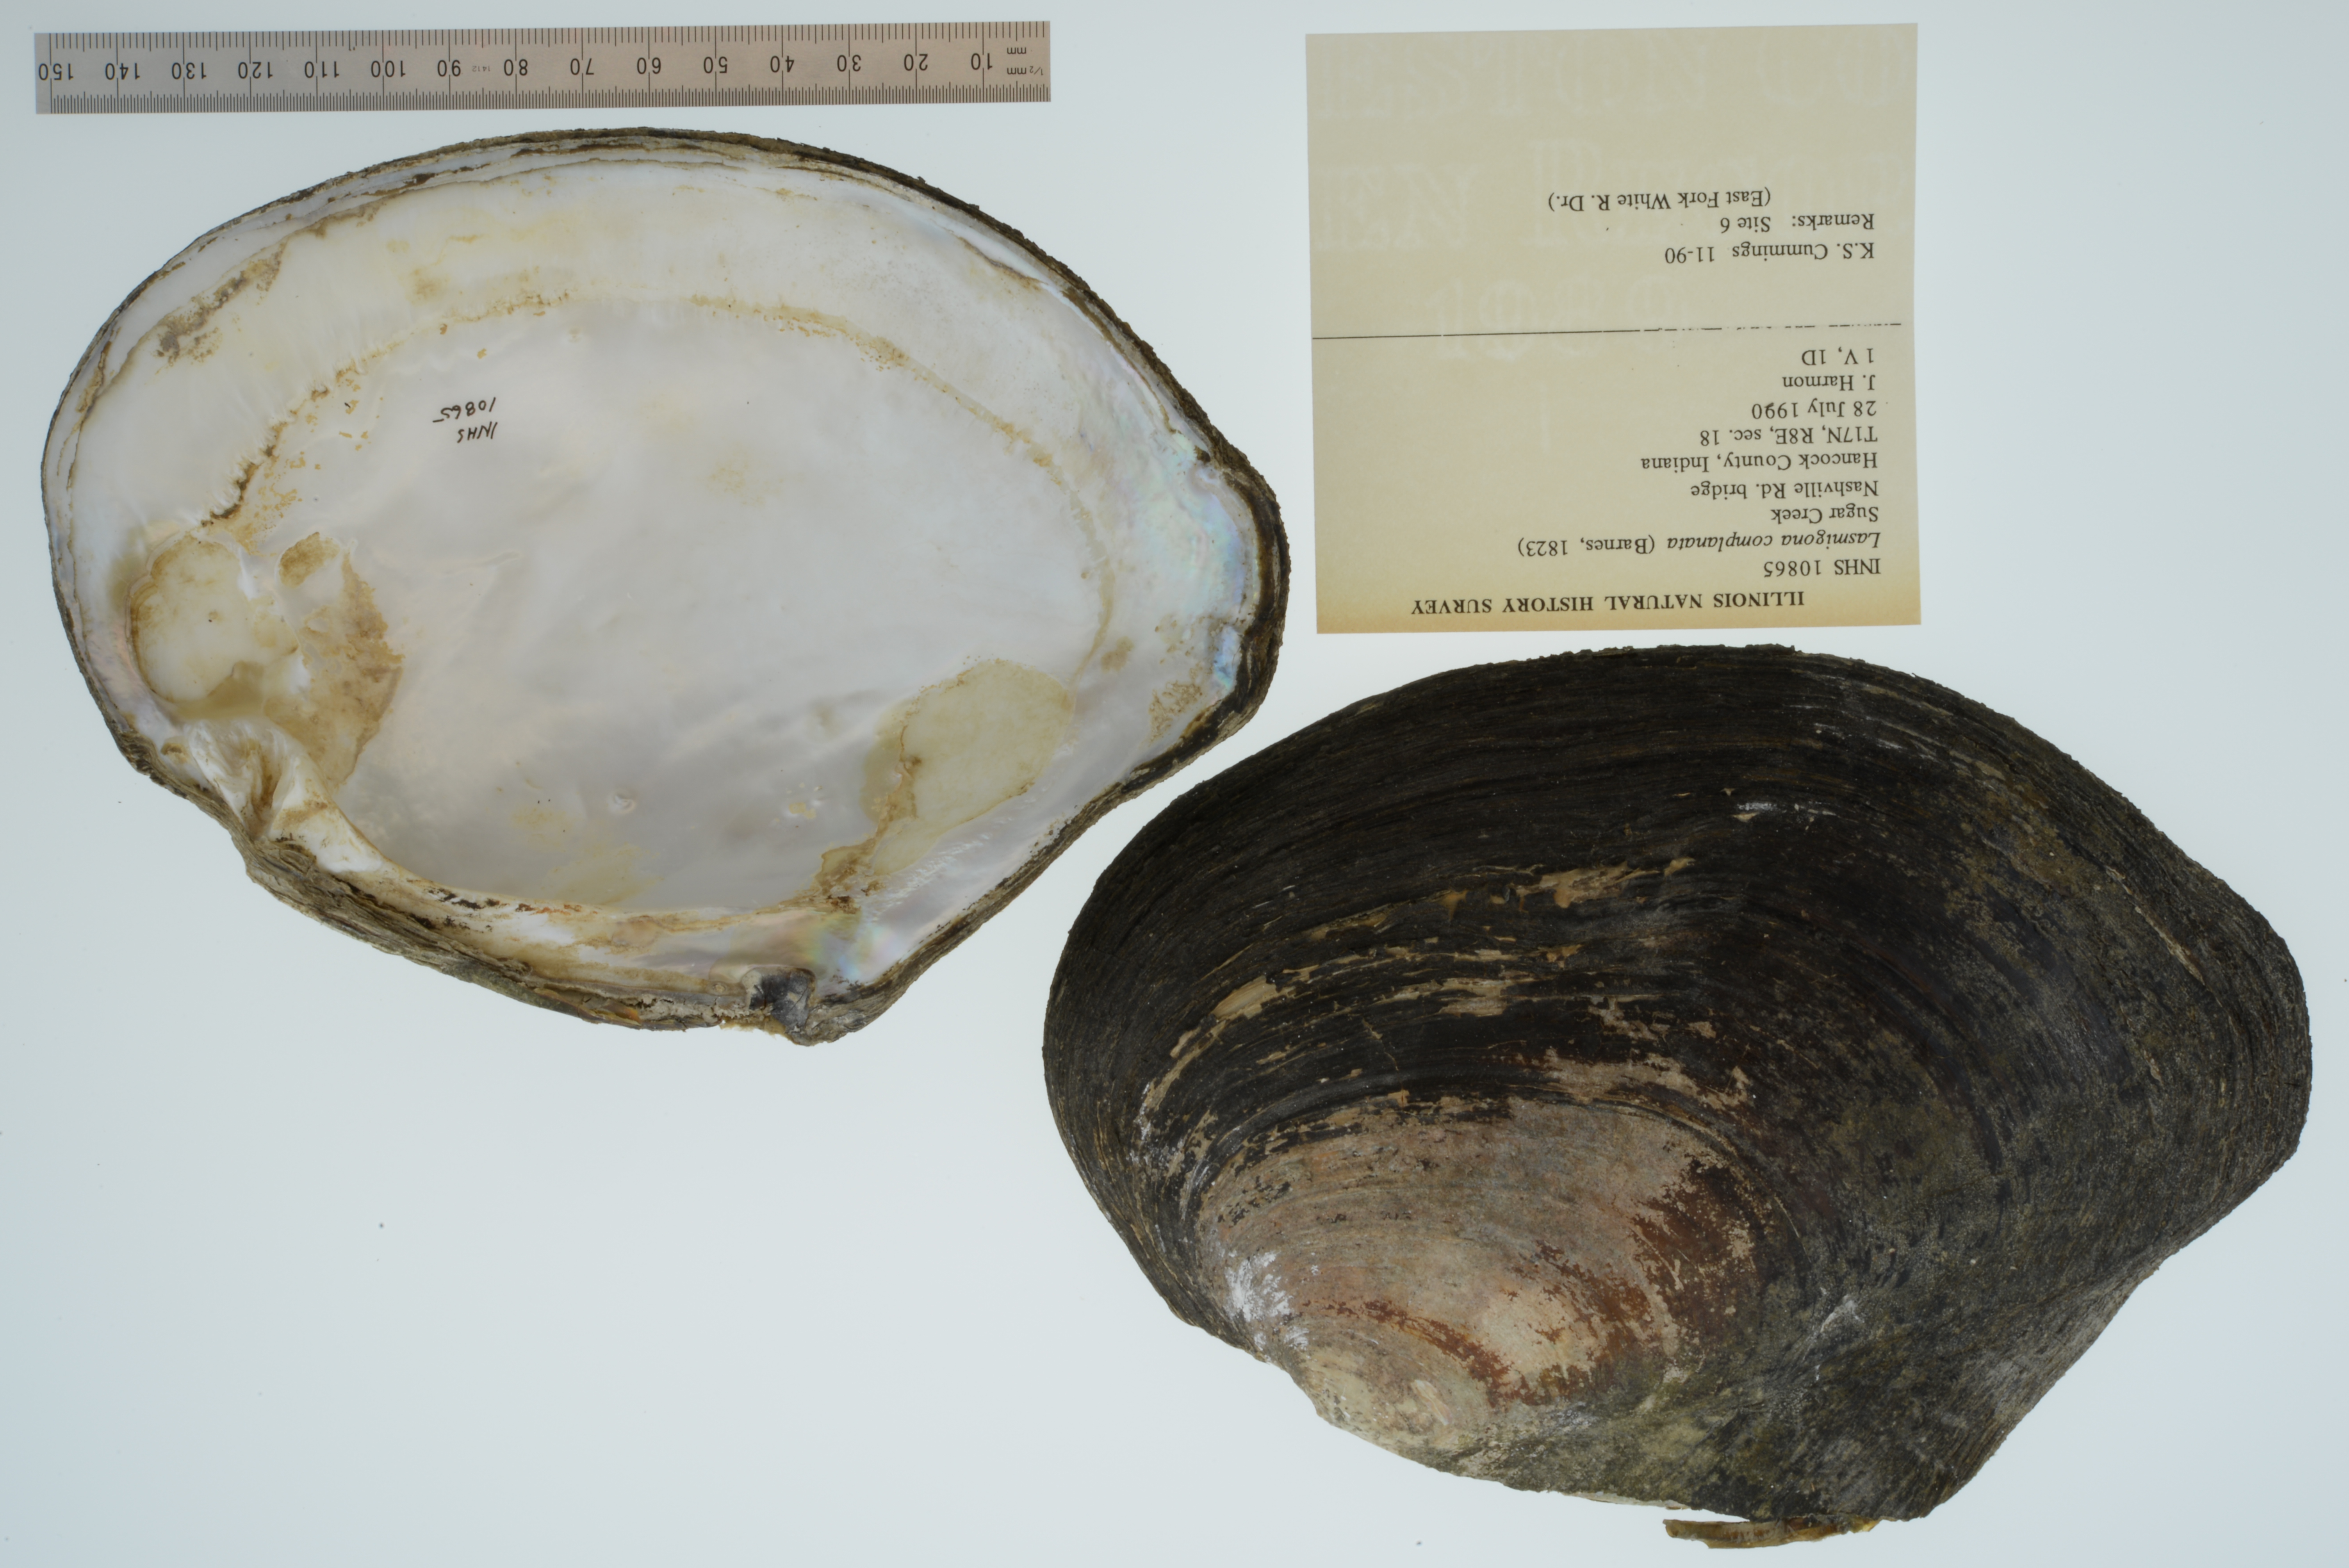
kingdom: Animalia
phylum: Mollusca
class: Bivalvia
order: Unionida
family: Unionidae
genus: Lasmigona
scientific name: Lasmigona complanata
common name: White heelsplitter
